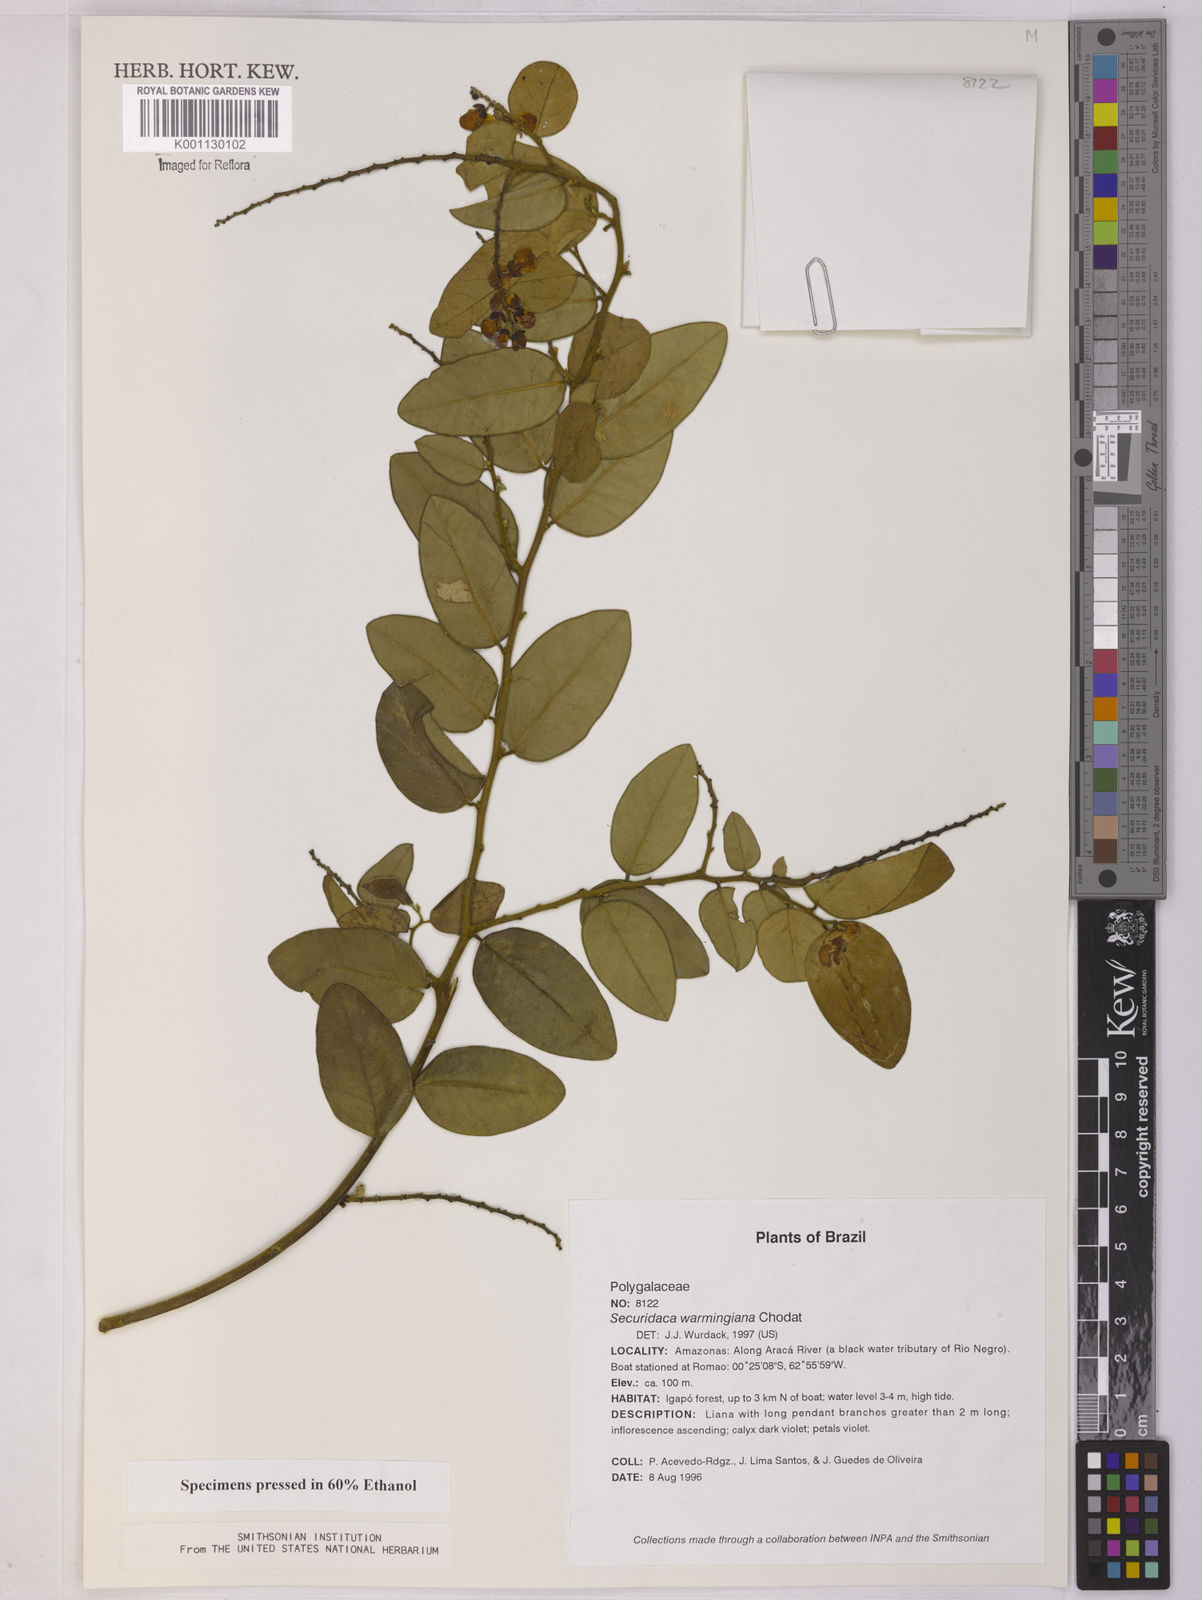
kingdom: Plantae
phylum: Tracheophyta
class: Magnoliopsida
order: Fabales
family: Polygalaceae
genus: Securidaca
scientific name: Securidaca warmingiana
